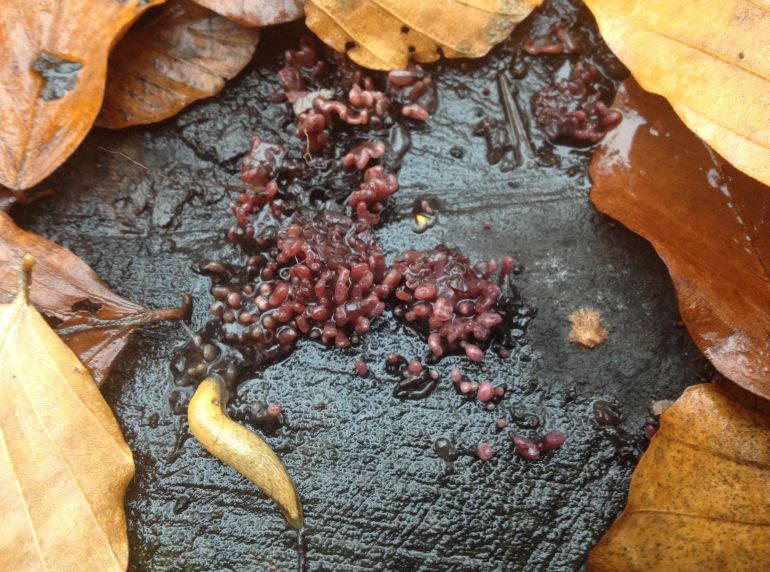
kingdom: Fungi
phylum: Ascomycota
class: Leotiomycetes
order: Helotiales
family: Gelatinodiscaceae
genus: Ascocoryne
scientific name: Ascocoryne sarcoides
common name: rødlilla sejskive
